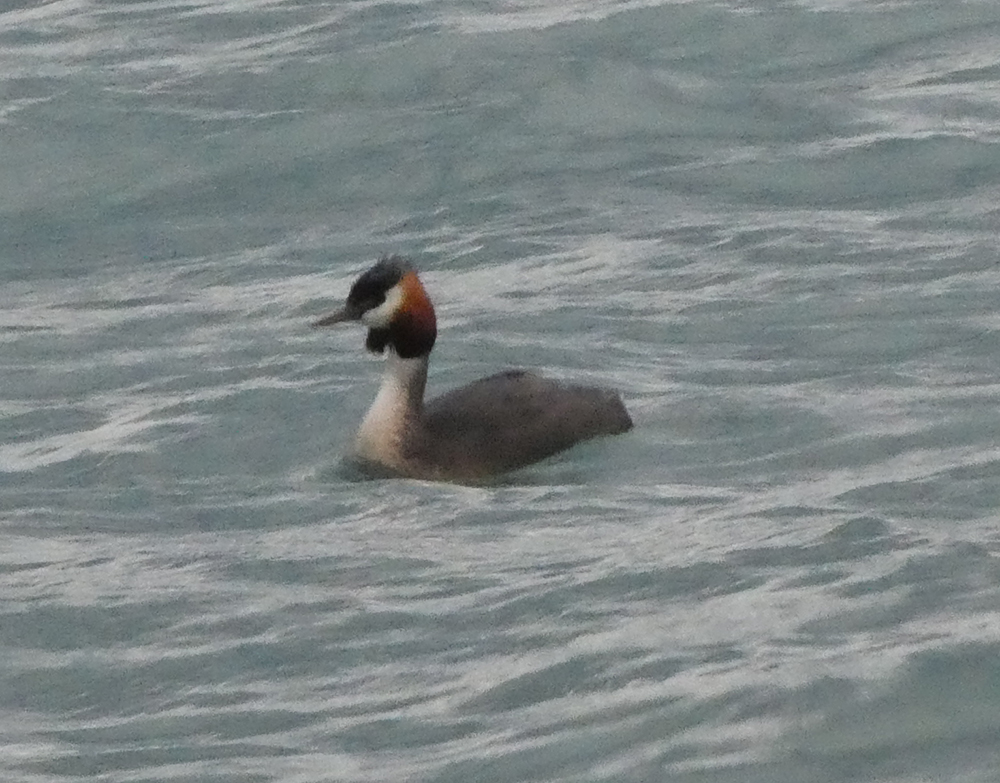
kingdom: Animalia
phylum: Chordata
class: Aves
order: Podicipediformes
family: Podicipedidae
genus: Podiceps
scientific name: Podiceps cristatus
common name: Great crested grebe
